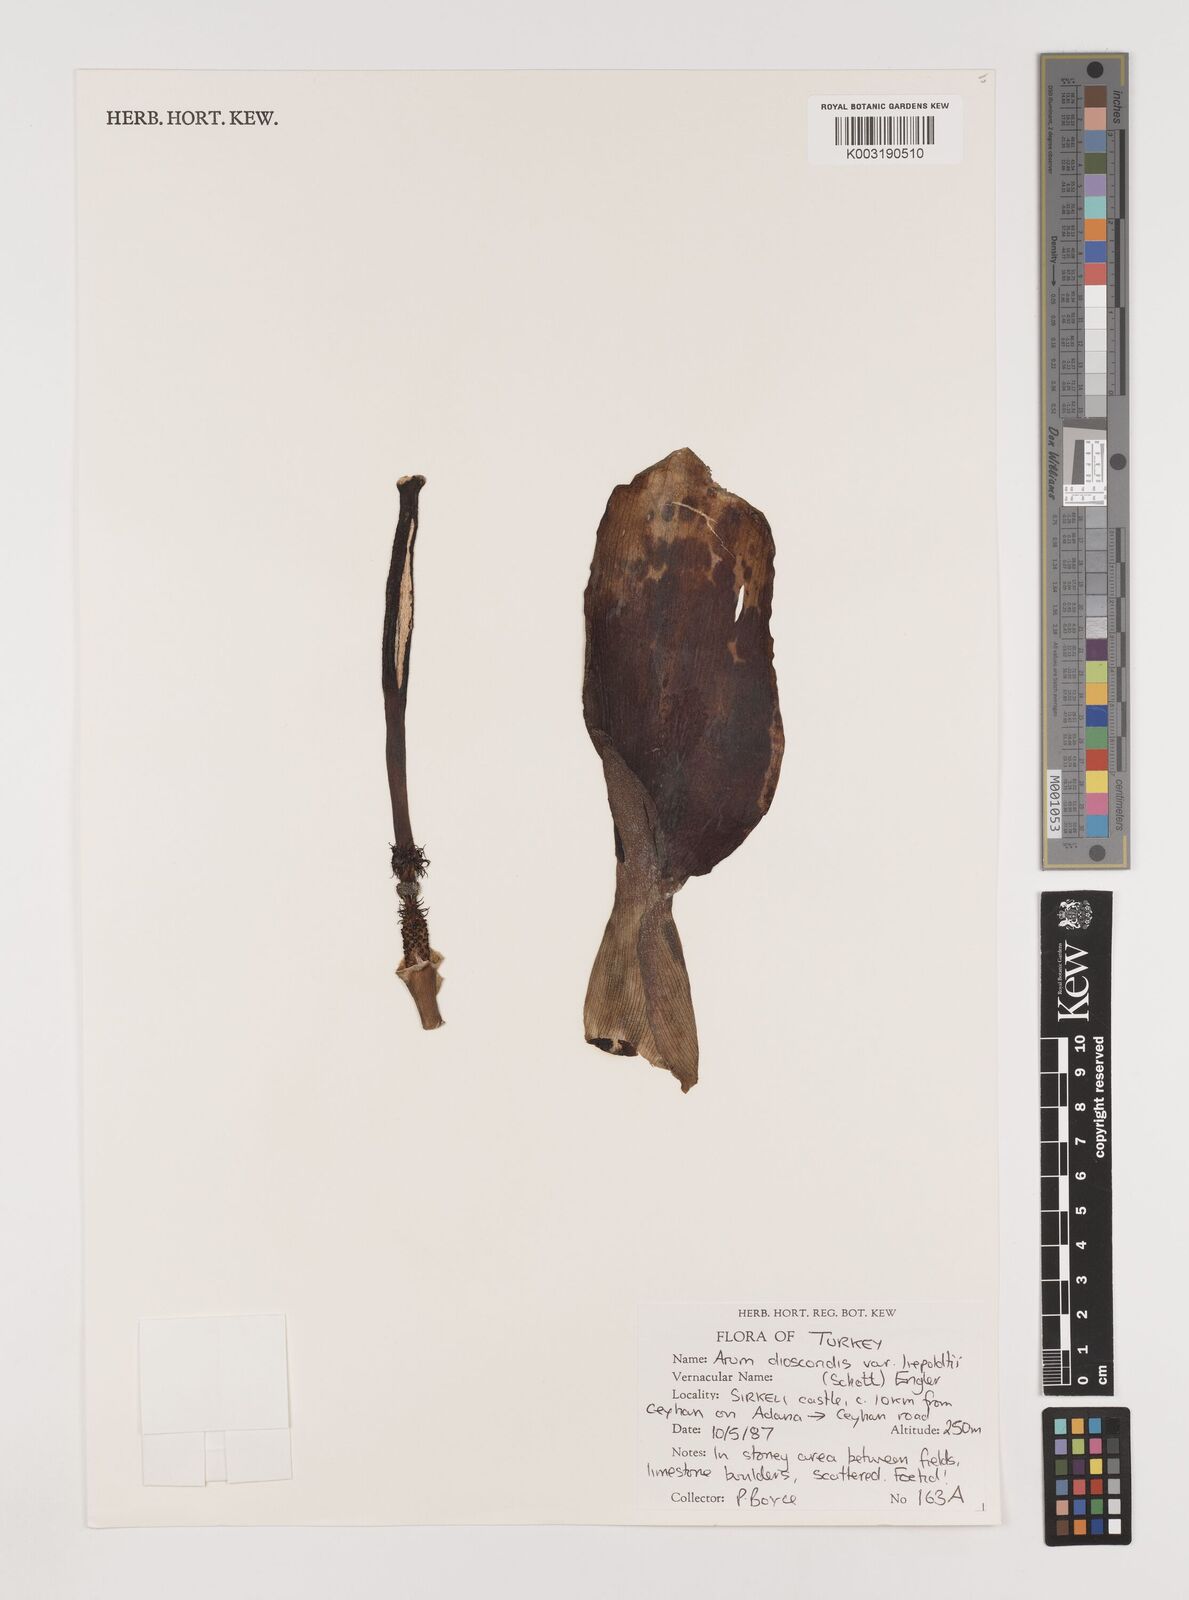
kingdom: Plantae
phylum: Tracheophyta
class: Liliopsida
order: Alismatales
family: Araceae
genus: Arum
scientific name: Arum dioscoridis
